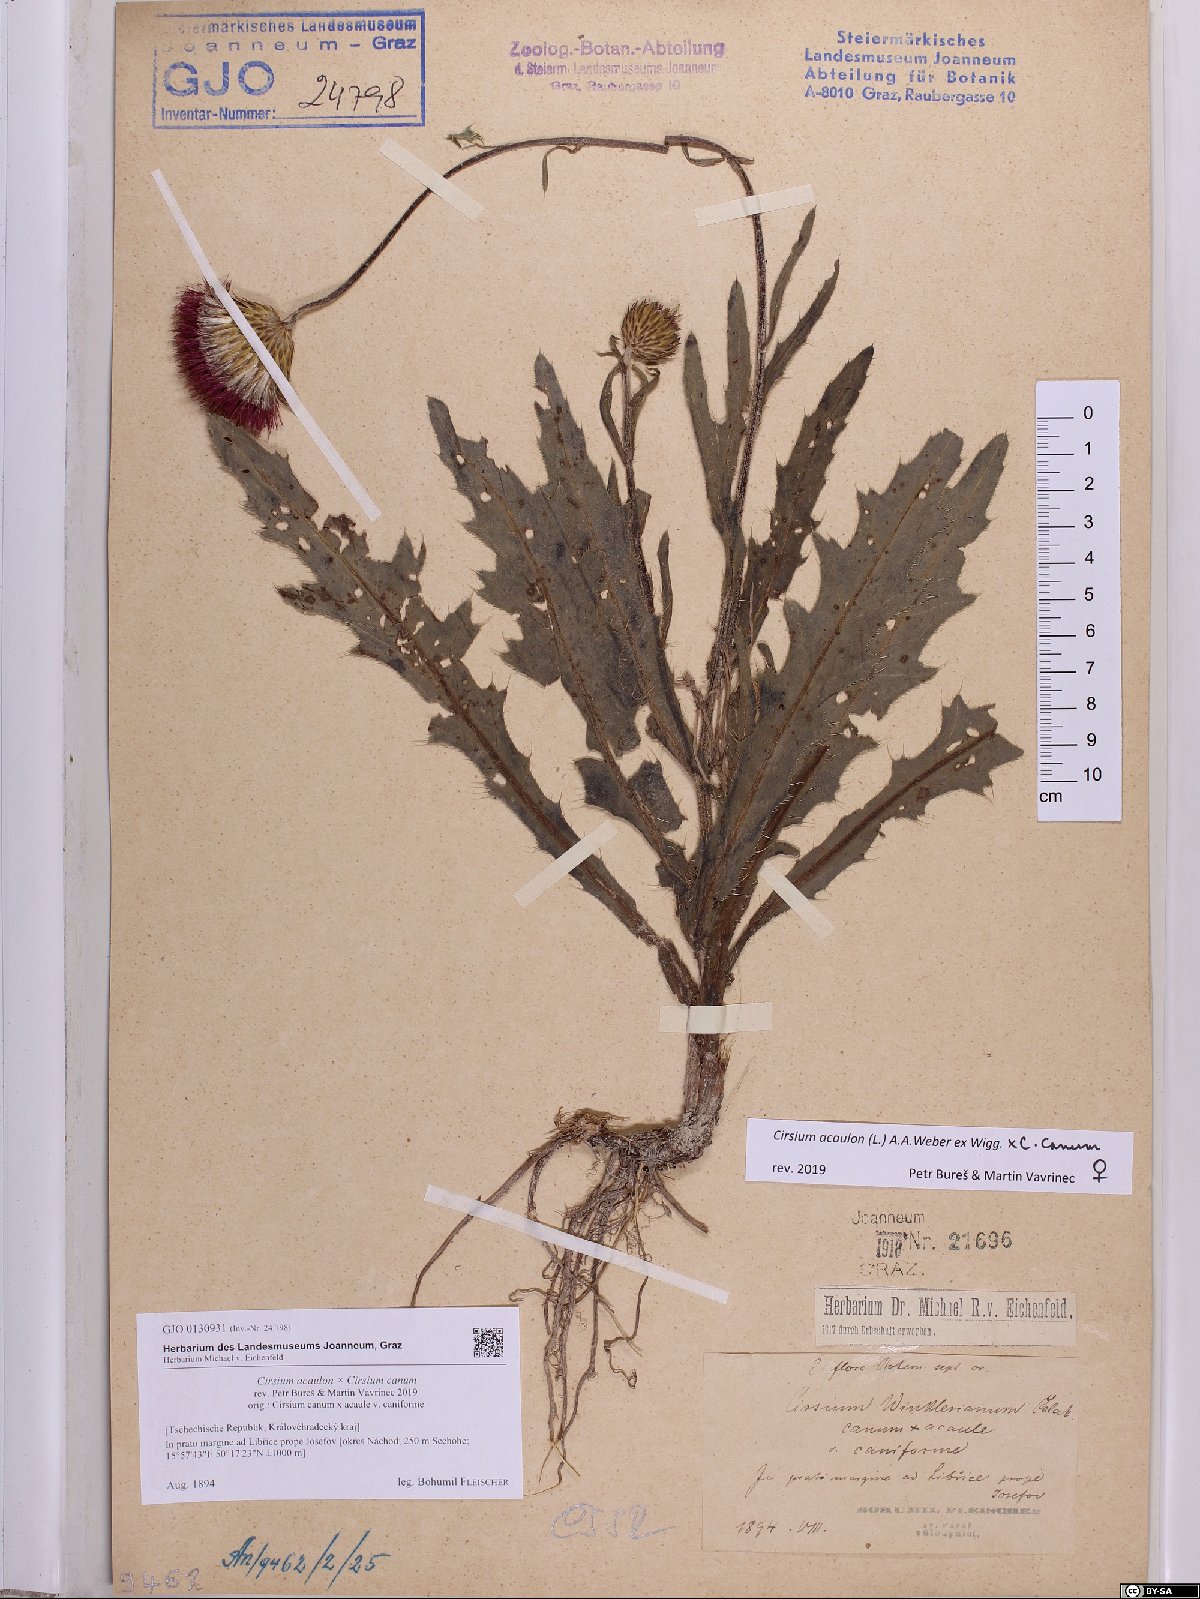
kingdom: Plantae
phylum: Tracheophyta
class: Magnoliopsida
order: Asterales
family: Asteraceae
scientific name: Asteraceae
